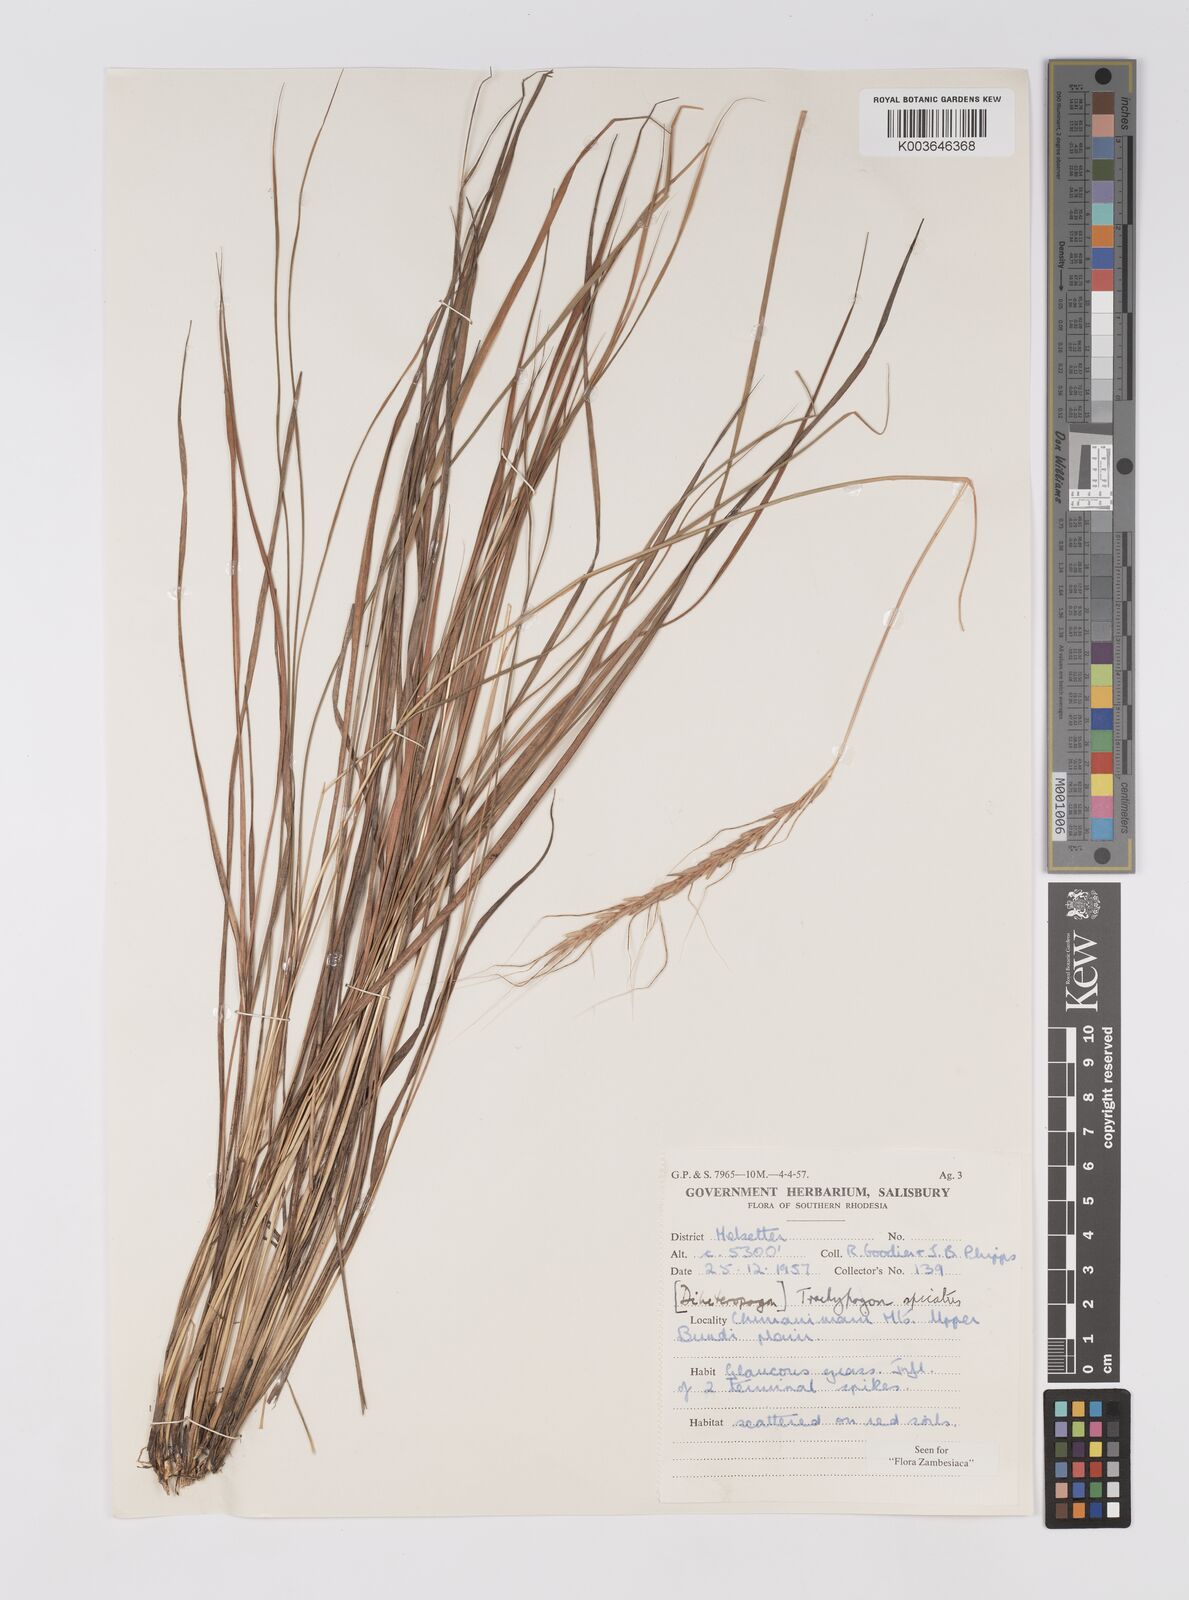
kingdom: Plantae
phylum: Tracheophyta
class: Liliopsida
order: Poales
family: Poaceae
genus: Trachypogon
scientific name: Trachypogon spicatus
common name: Crinkle-awn
